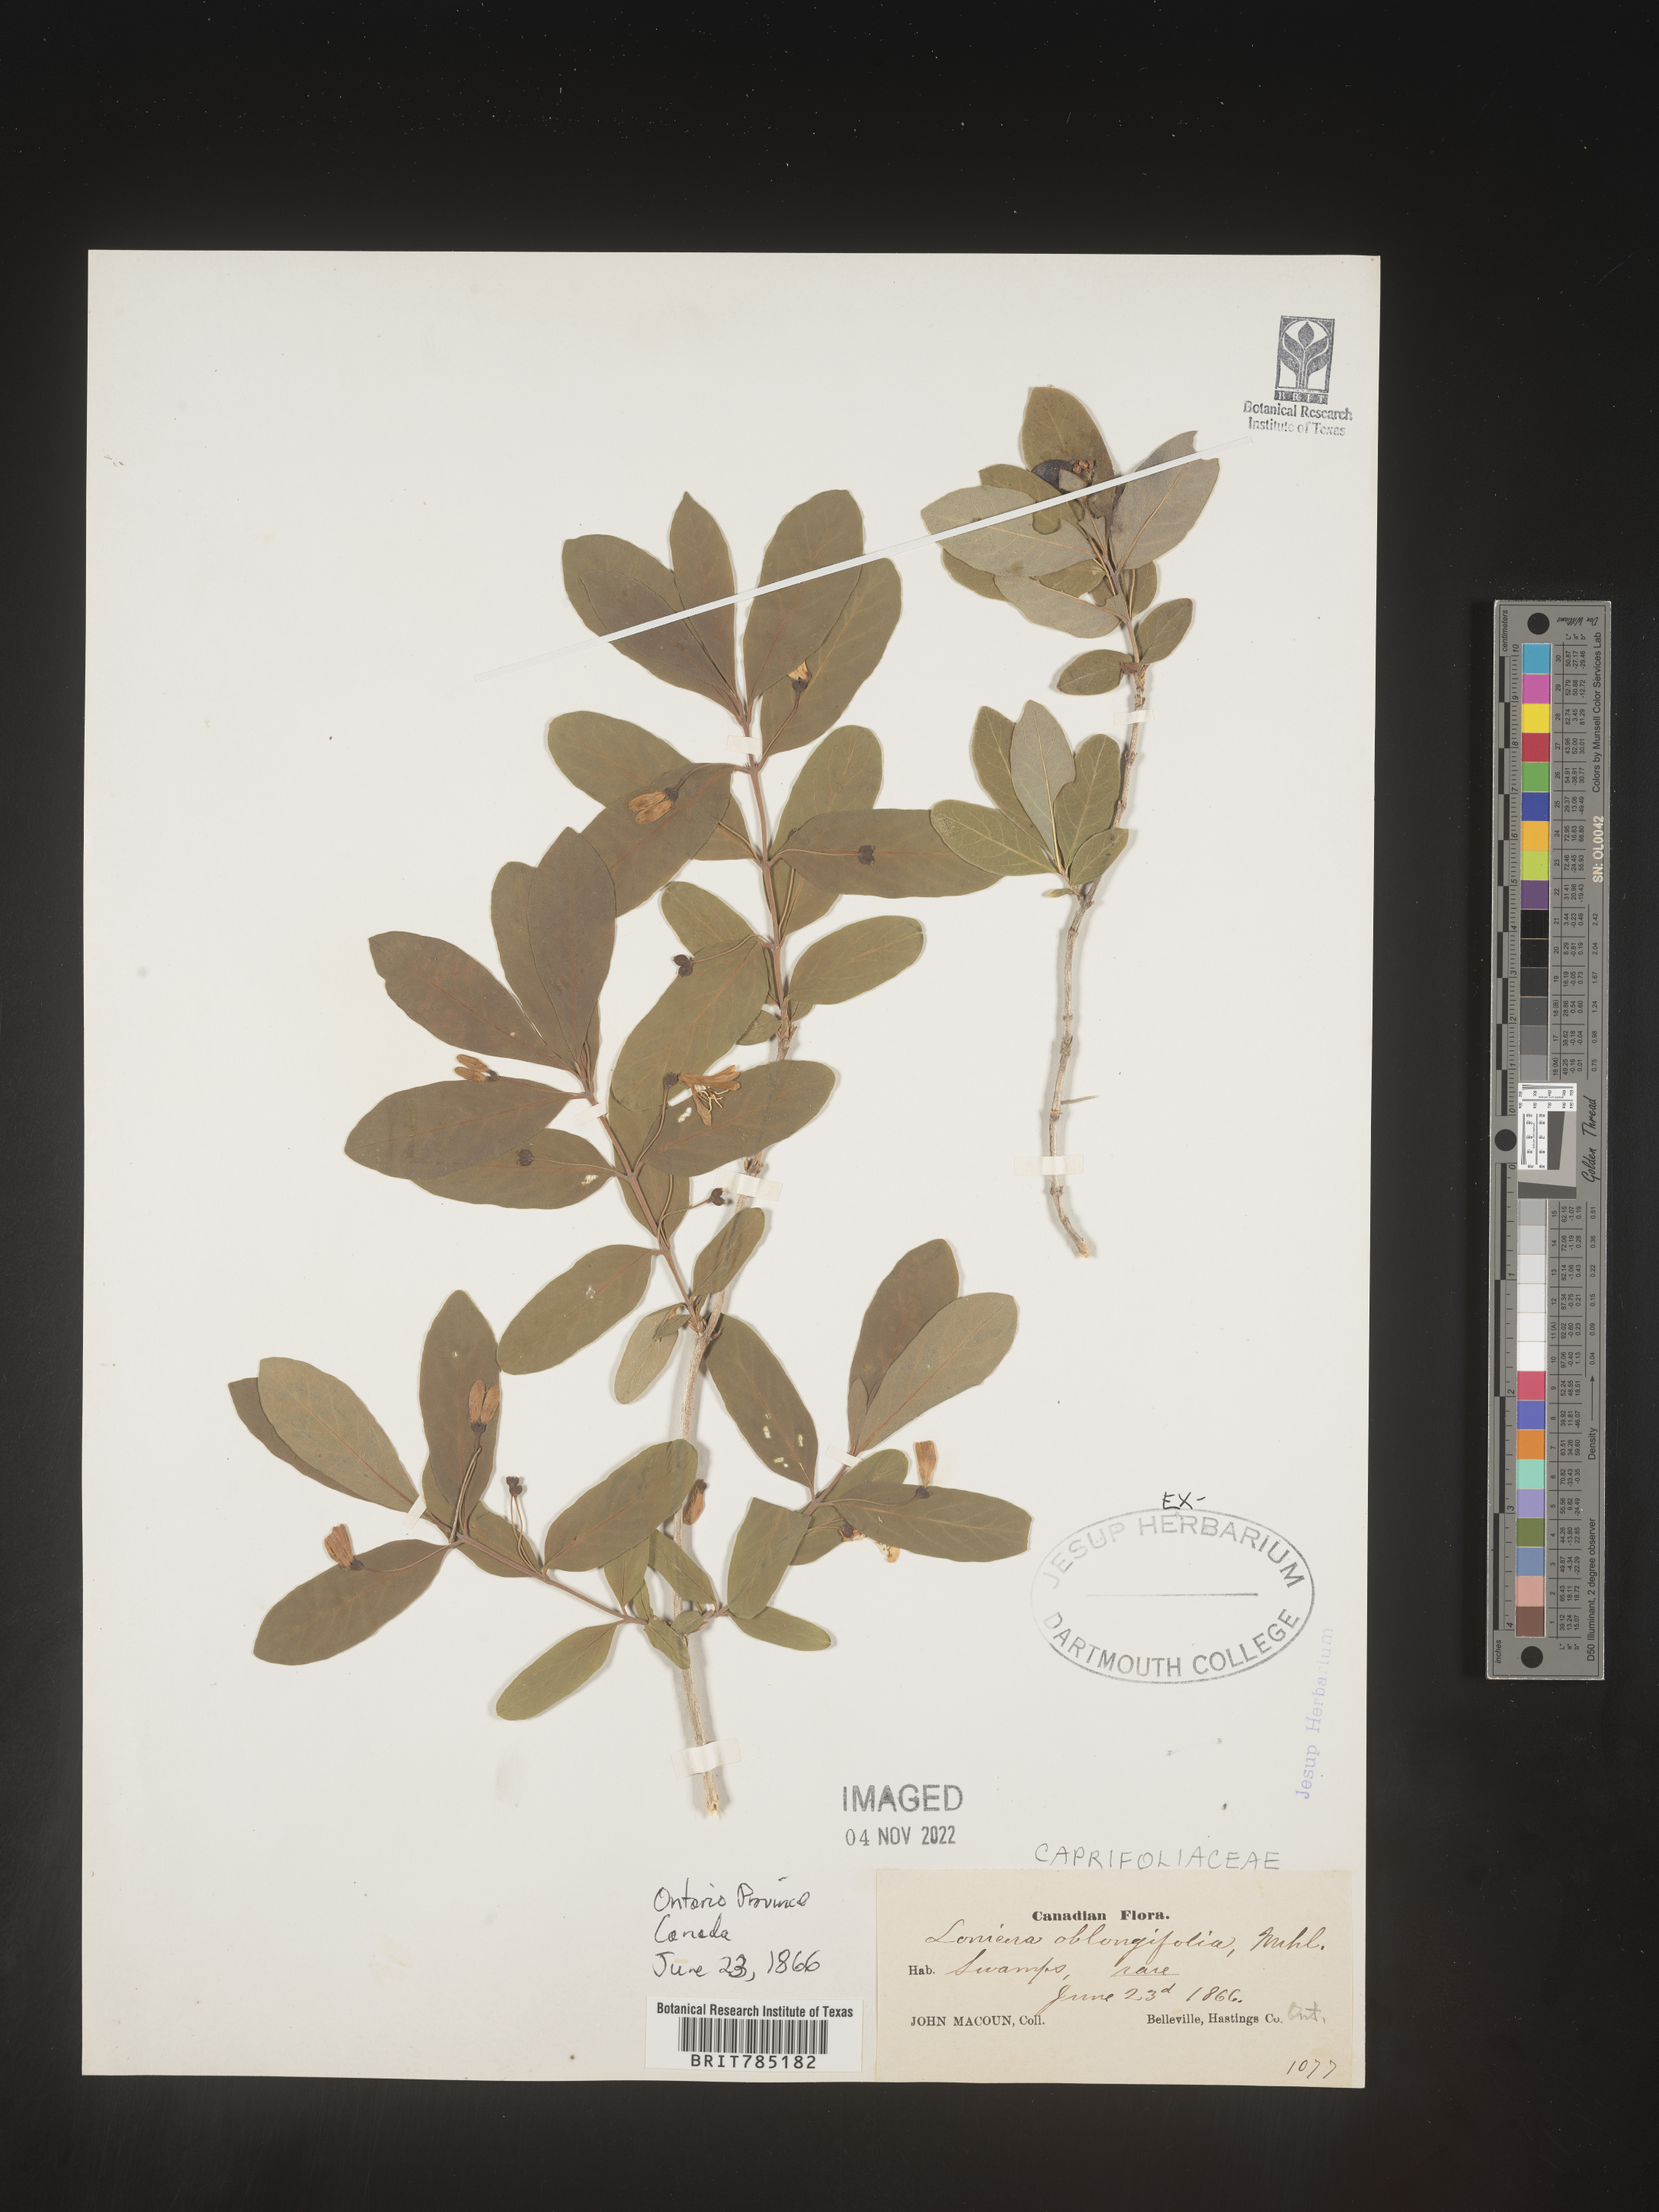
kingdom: Plantae
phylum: Tracheophyta
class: Magnoliopsida
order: Dipsacales
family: Caprifoliaceae
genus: Lonicera
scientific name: Lonicera
